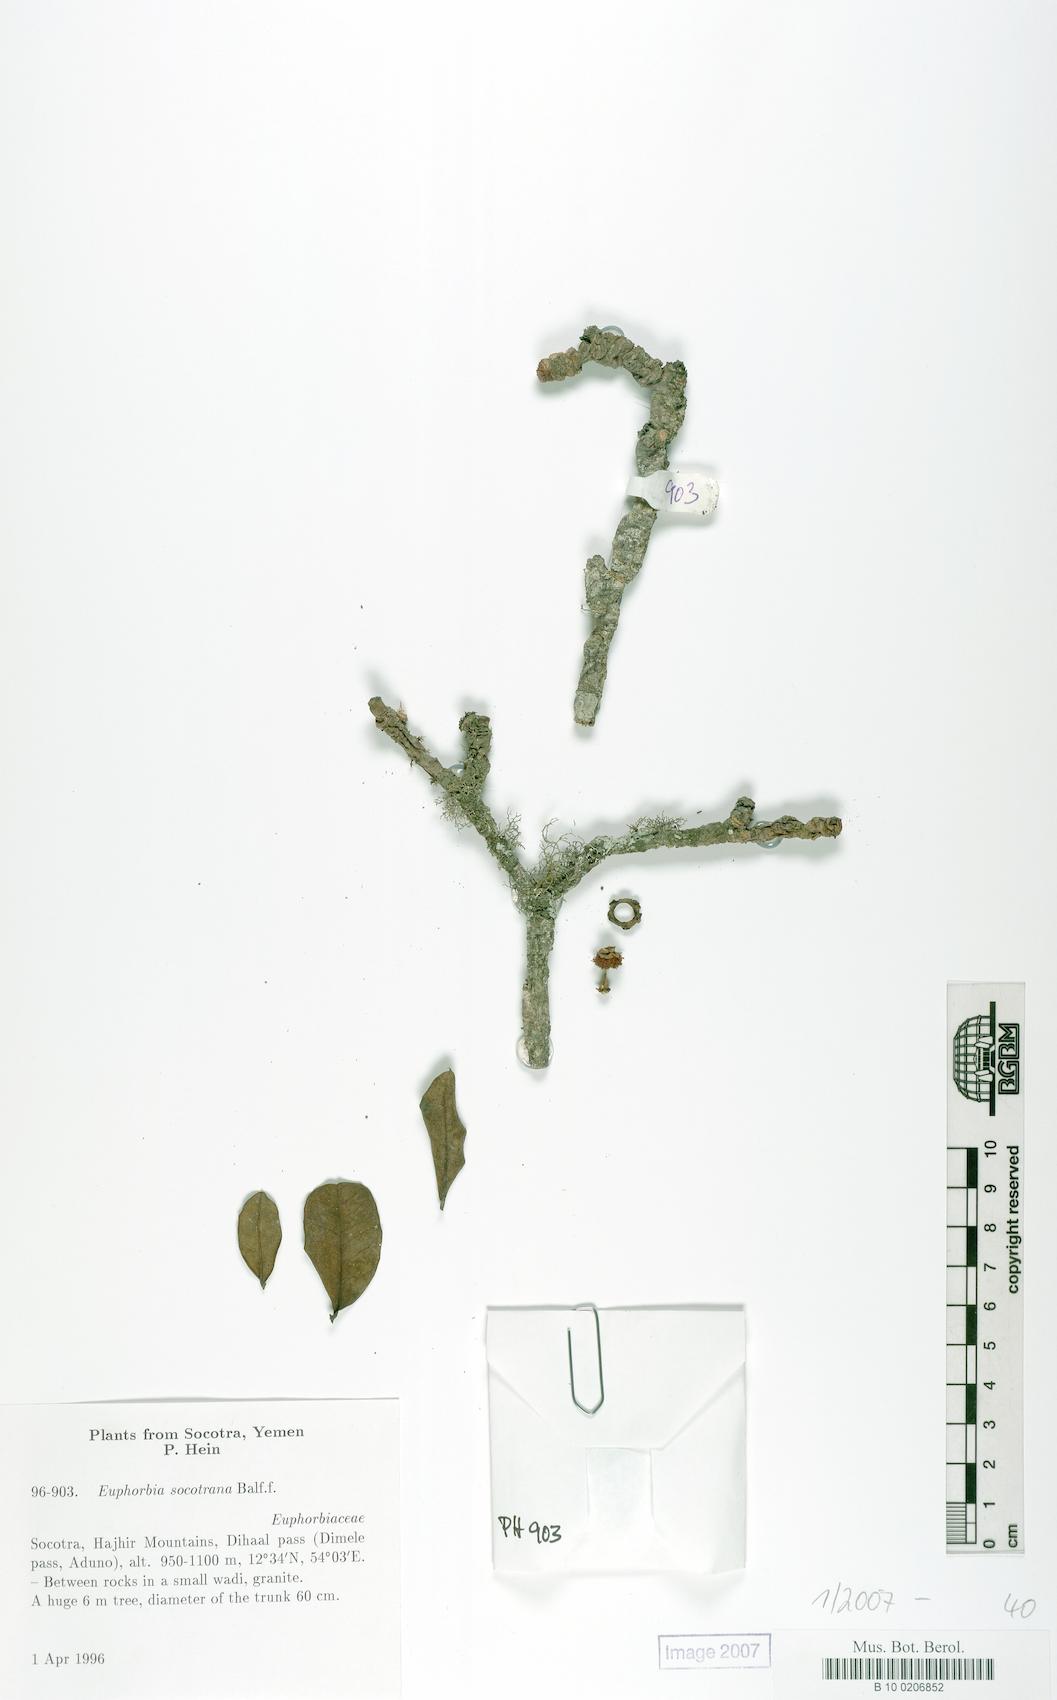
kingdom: Plantae
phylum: Tracheophyta
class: Magnoliopsida
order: Malpighiales
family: Euphorbiaceae
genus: Euphorbia
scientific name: Euphorbia socotrana
